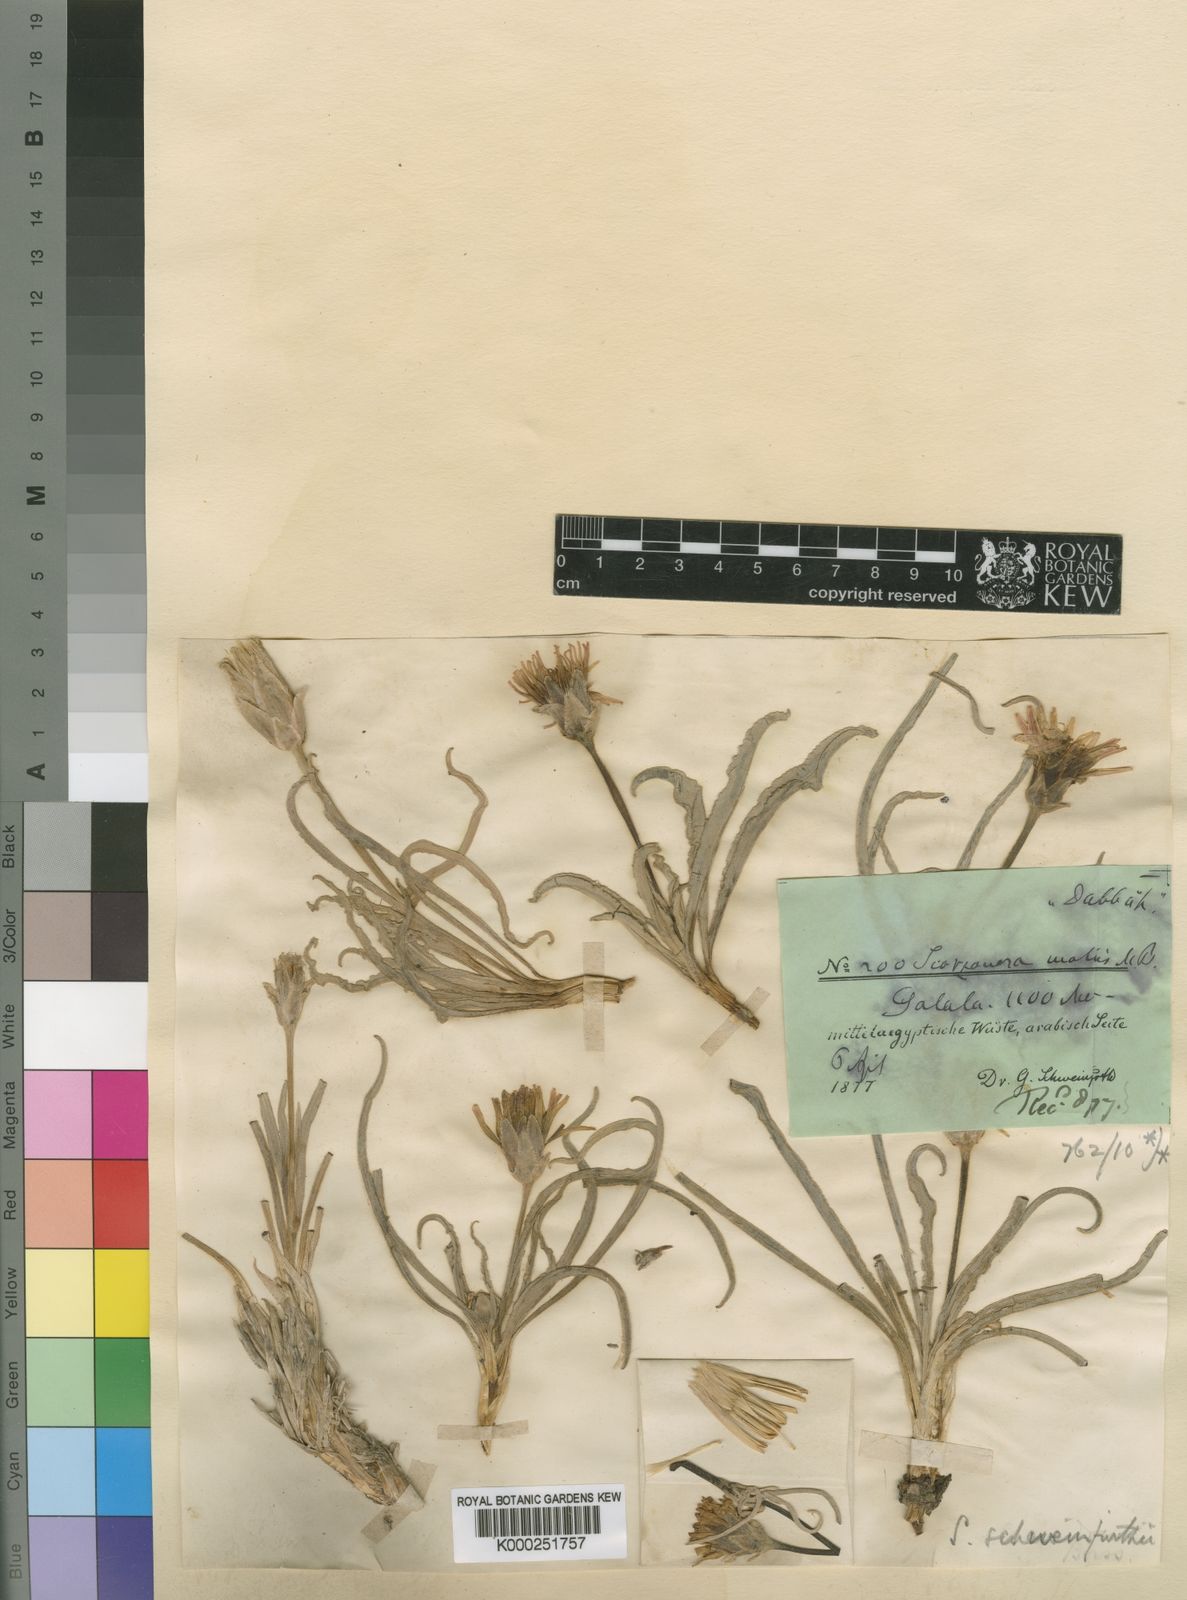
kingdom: Plantae
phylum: Tracheophyta
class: Magnoliopsida
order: Asterales
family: Asteraceae
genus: Scorzonera
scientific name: Scorzonera schweinfurthii
